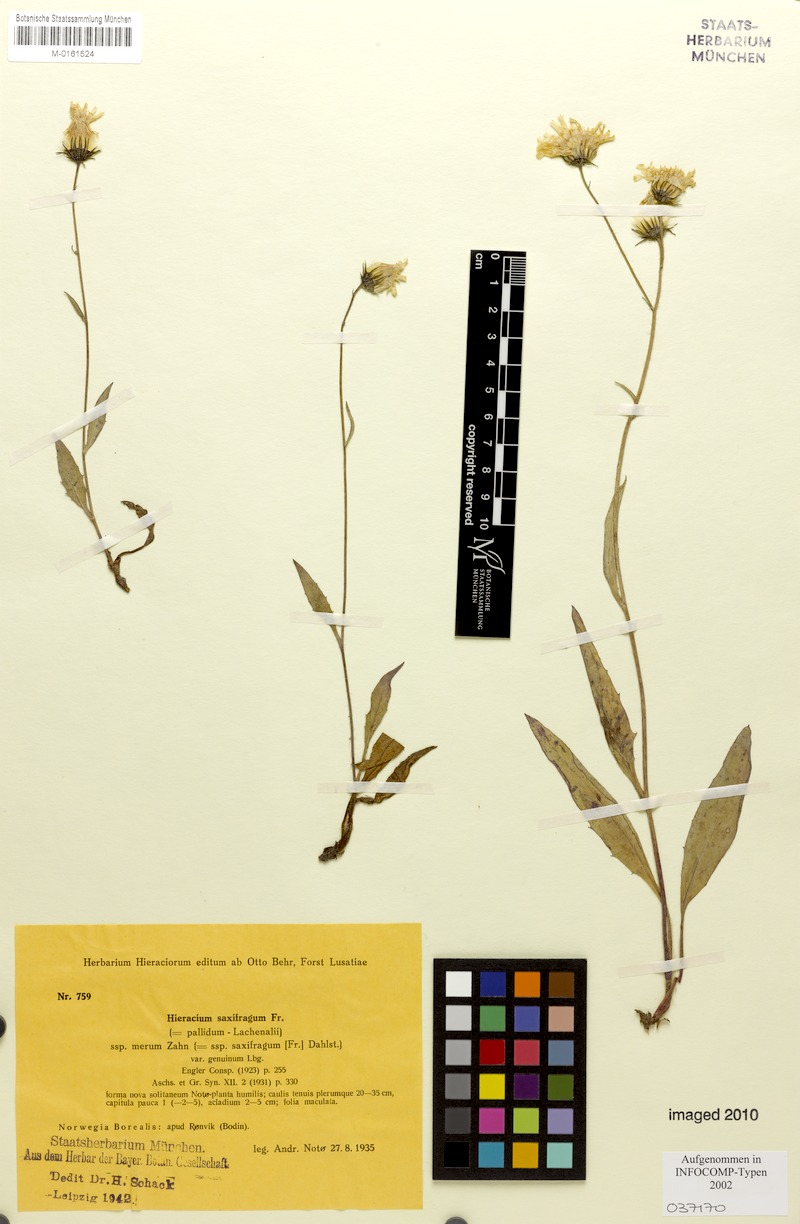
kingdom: Plantae
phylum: Tracheophyta
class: Magnoliopsida
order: Asterales
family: Asteraceae
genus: Hieracium
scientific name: Hieracium saxifragum
